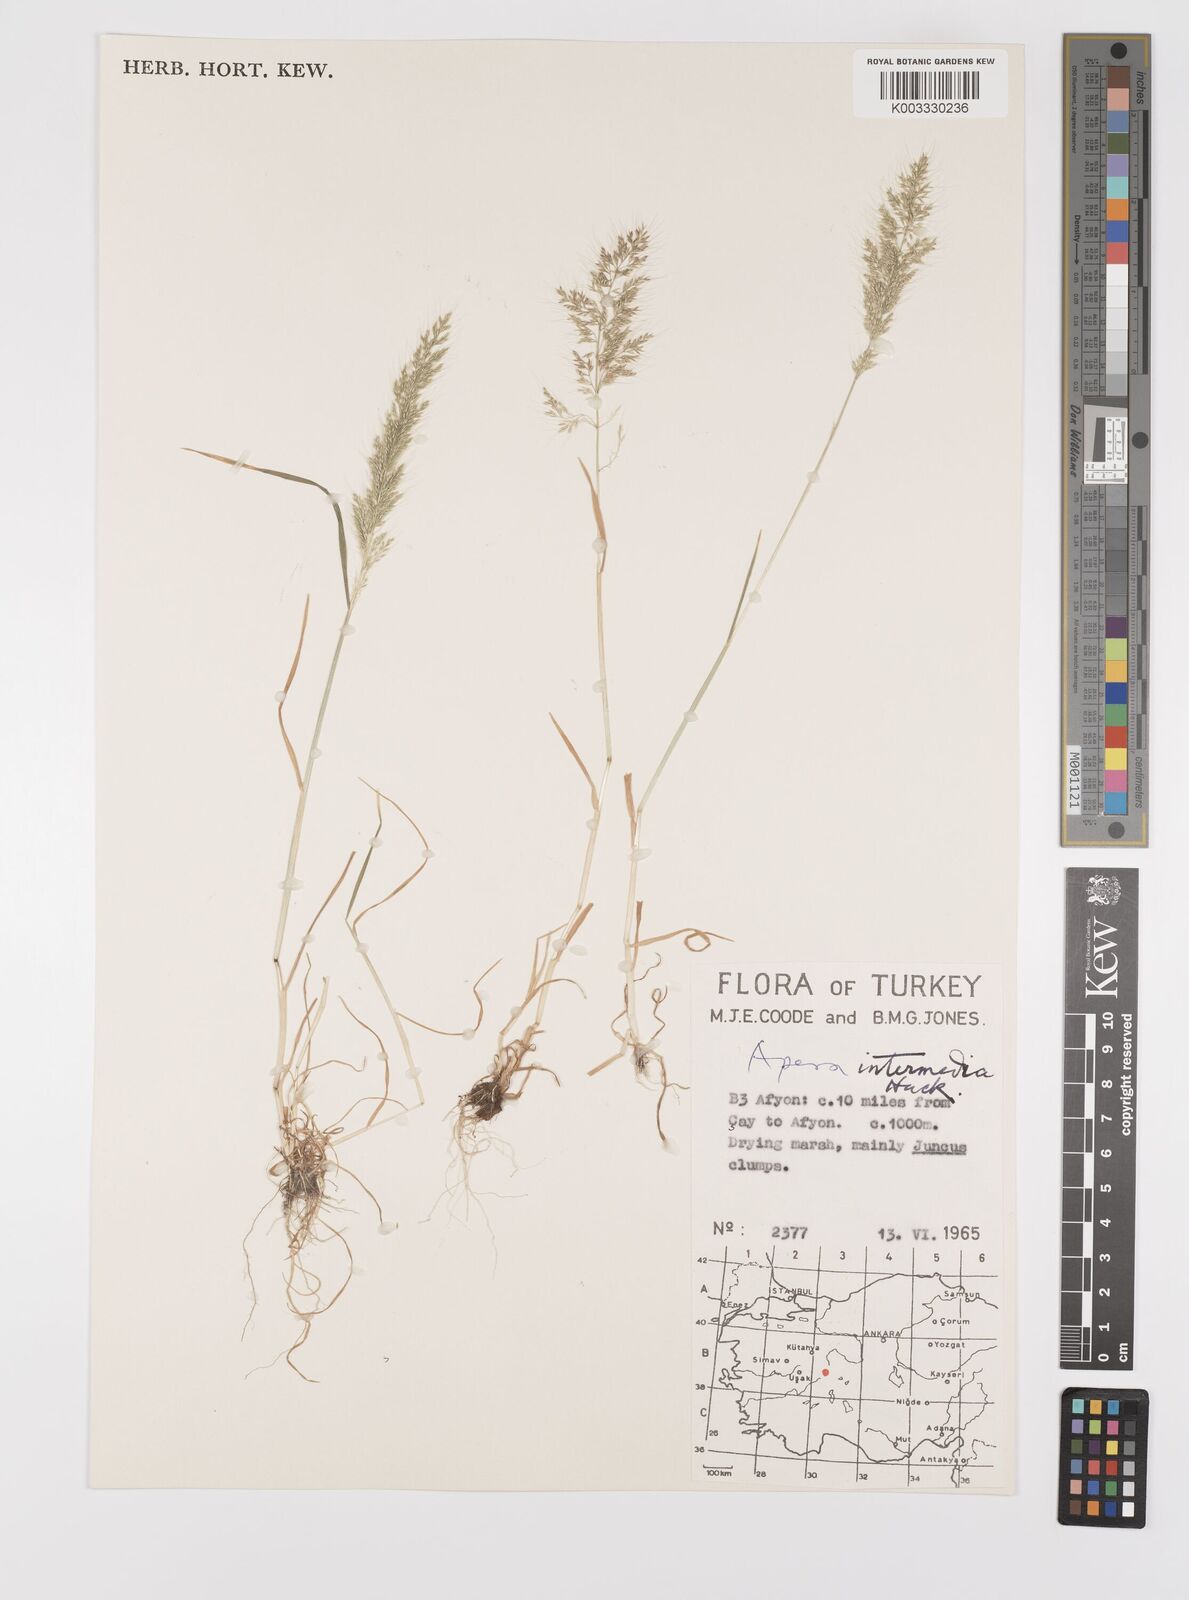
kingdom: Plantae
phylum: Tracheophyta
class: Liliopsida
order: Poales
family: Poaceae
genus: Apera
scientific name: Apera intermedia
